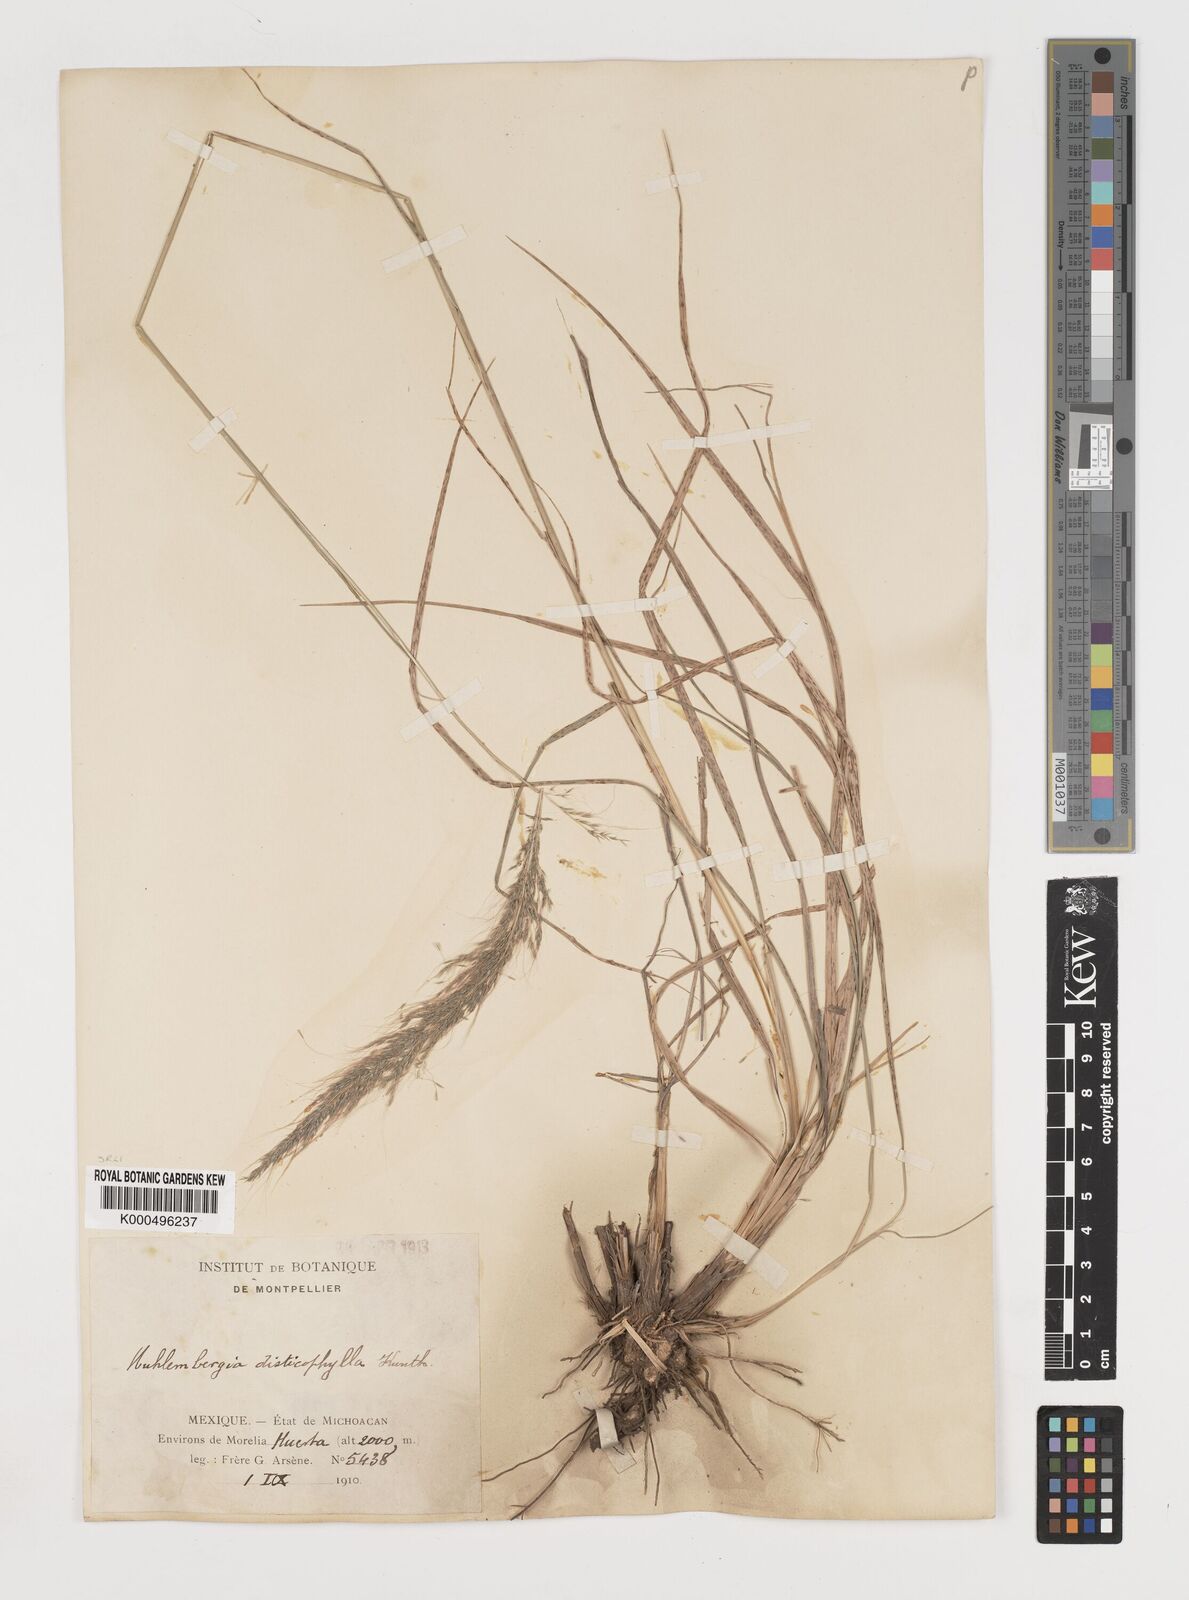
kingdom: Plantae
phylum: Tracheophyta
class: Liliopsida
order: Poales
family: Poaceae
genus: Muhlenbergia
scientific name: Muhlenbergia
